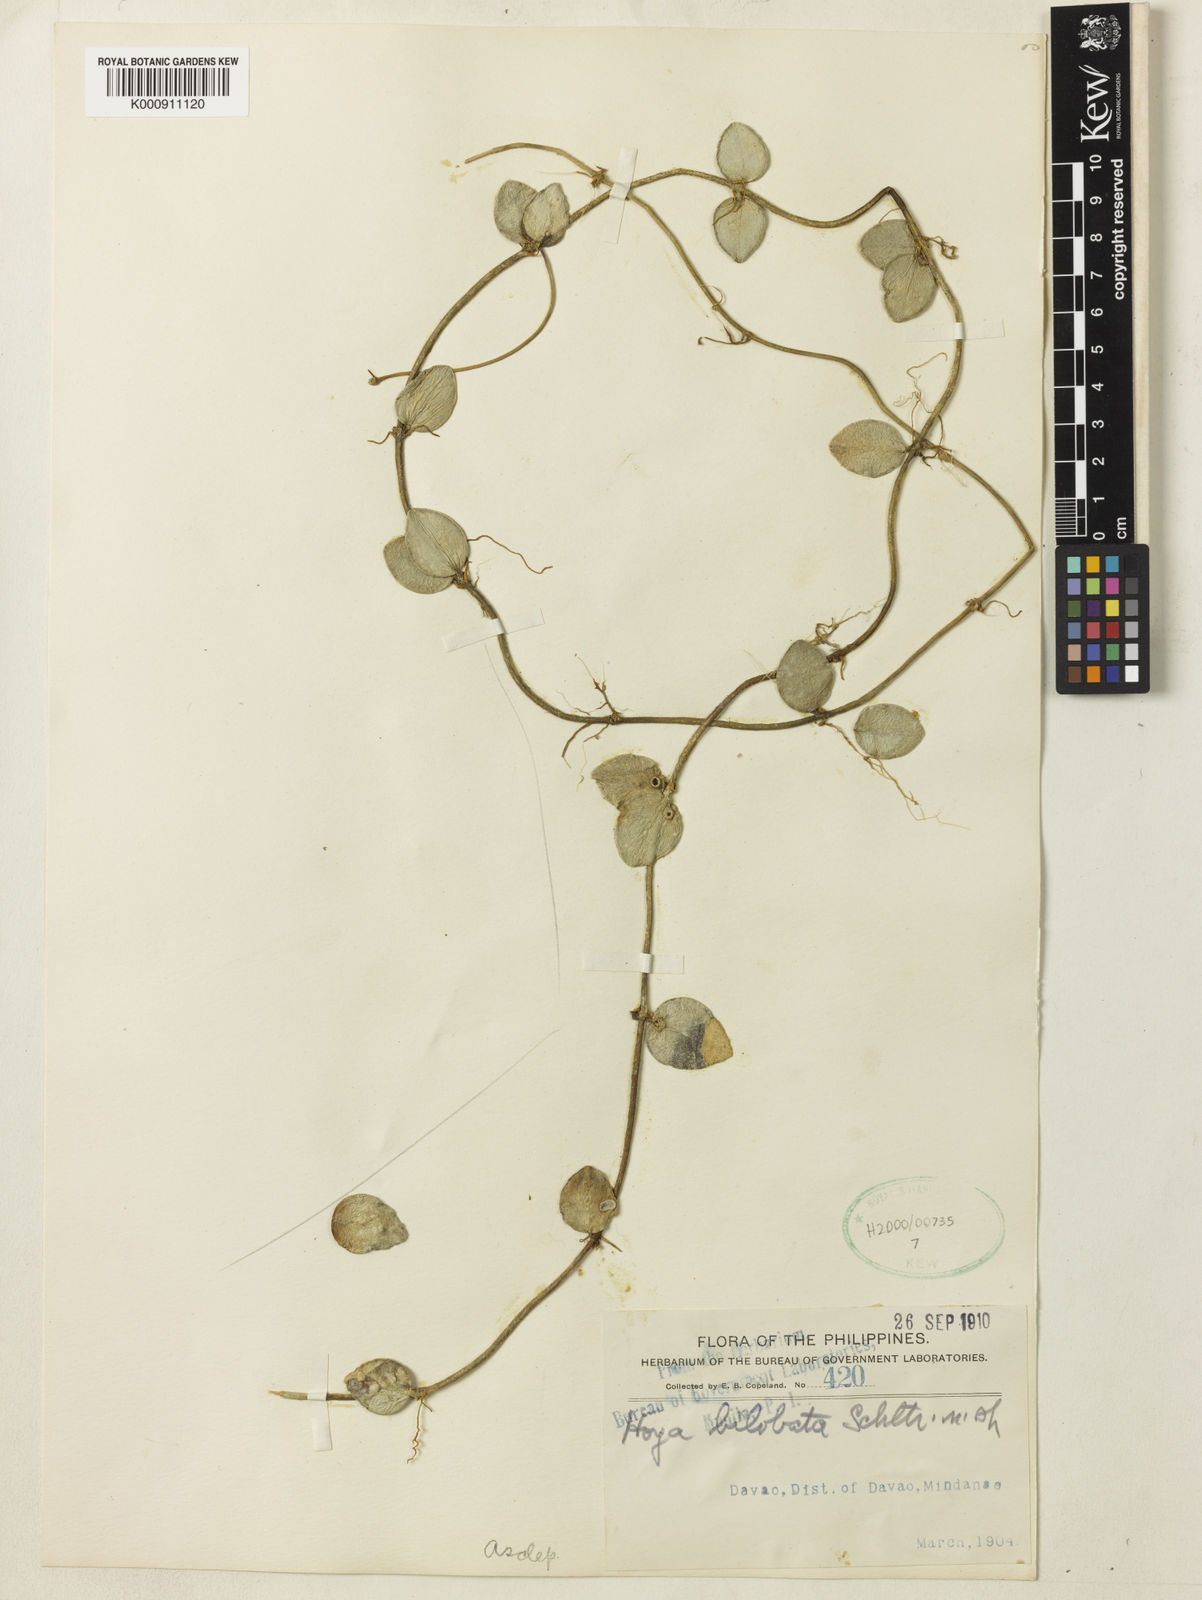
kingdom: Plantae
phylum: Tracheophyta
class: Magnoliopsida
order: Gentianales
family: Apocynaceae
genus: Hoya
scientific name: Hoya bilobata
